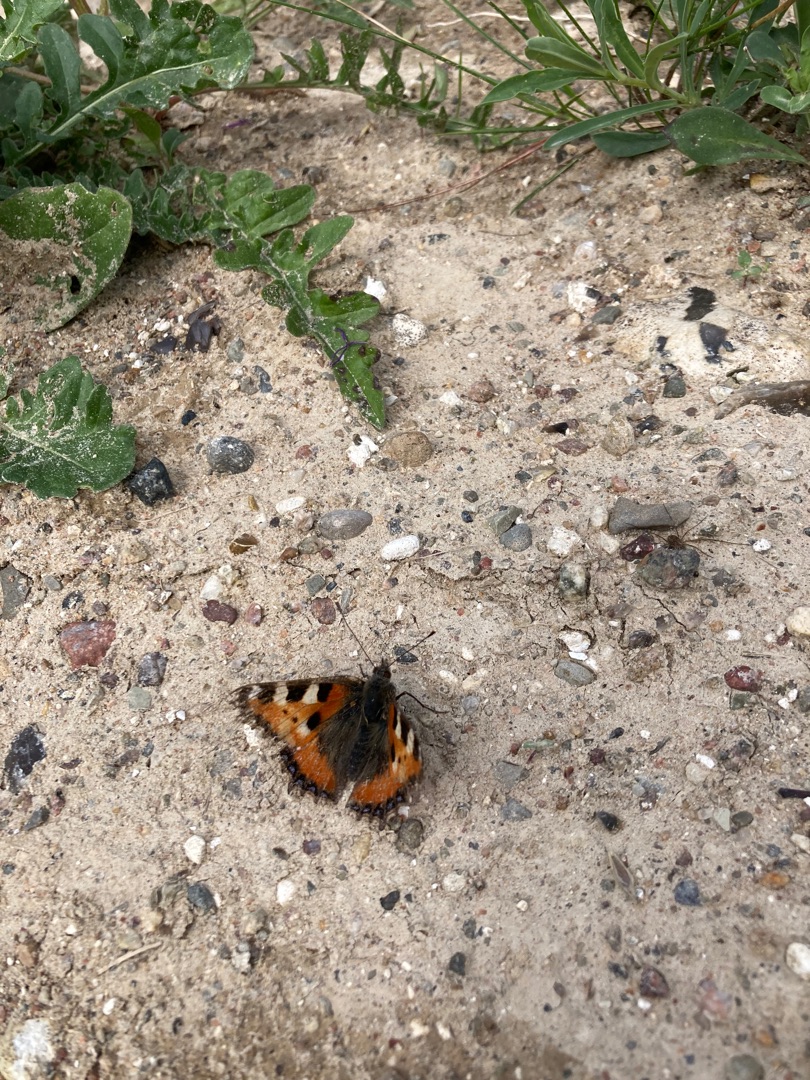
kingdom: Animalia
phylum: Arthropoda
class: Insecta
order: Lepidoptera
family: Nymphalidae
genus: Aglais
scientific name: Aglais urticae
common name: Nældens takvinge
